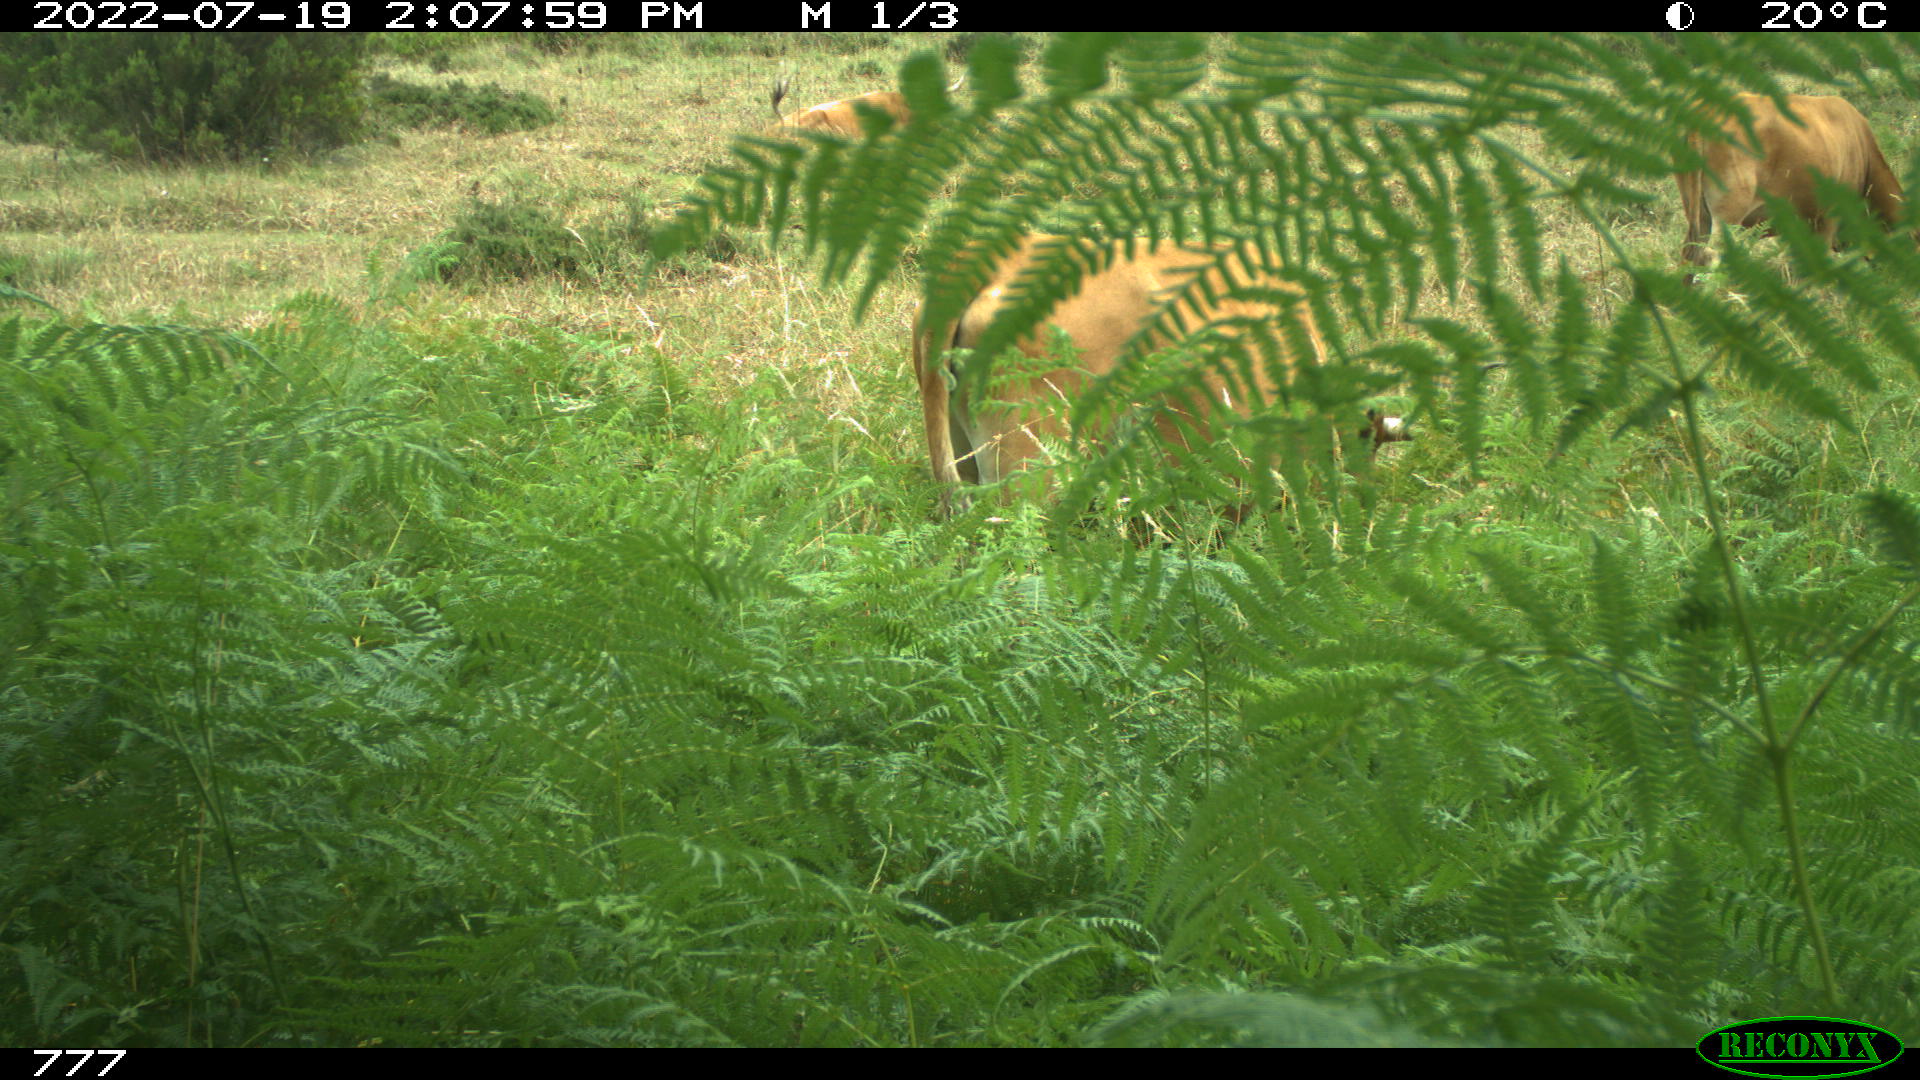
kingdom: Animalia
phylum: Chordata
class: Mammalia
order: Artiodactyla
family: Bovidae
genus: Bos
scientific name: Bos taurus
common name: Domesticated cattle
